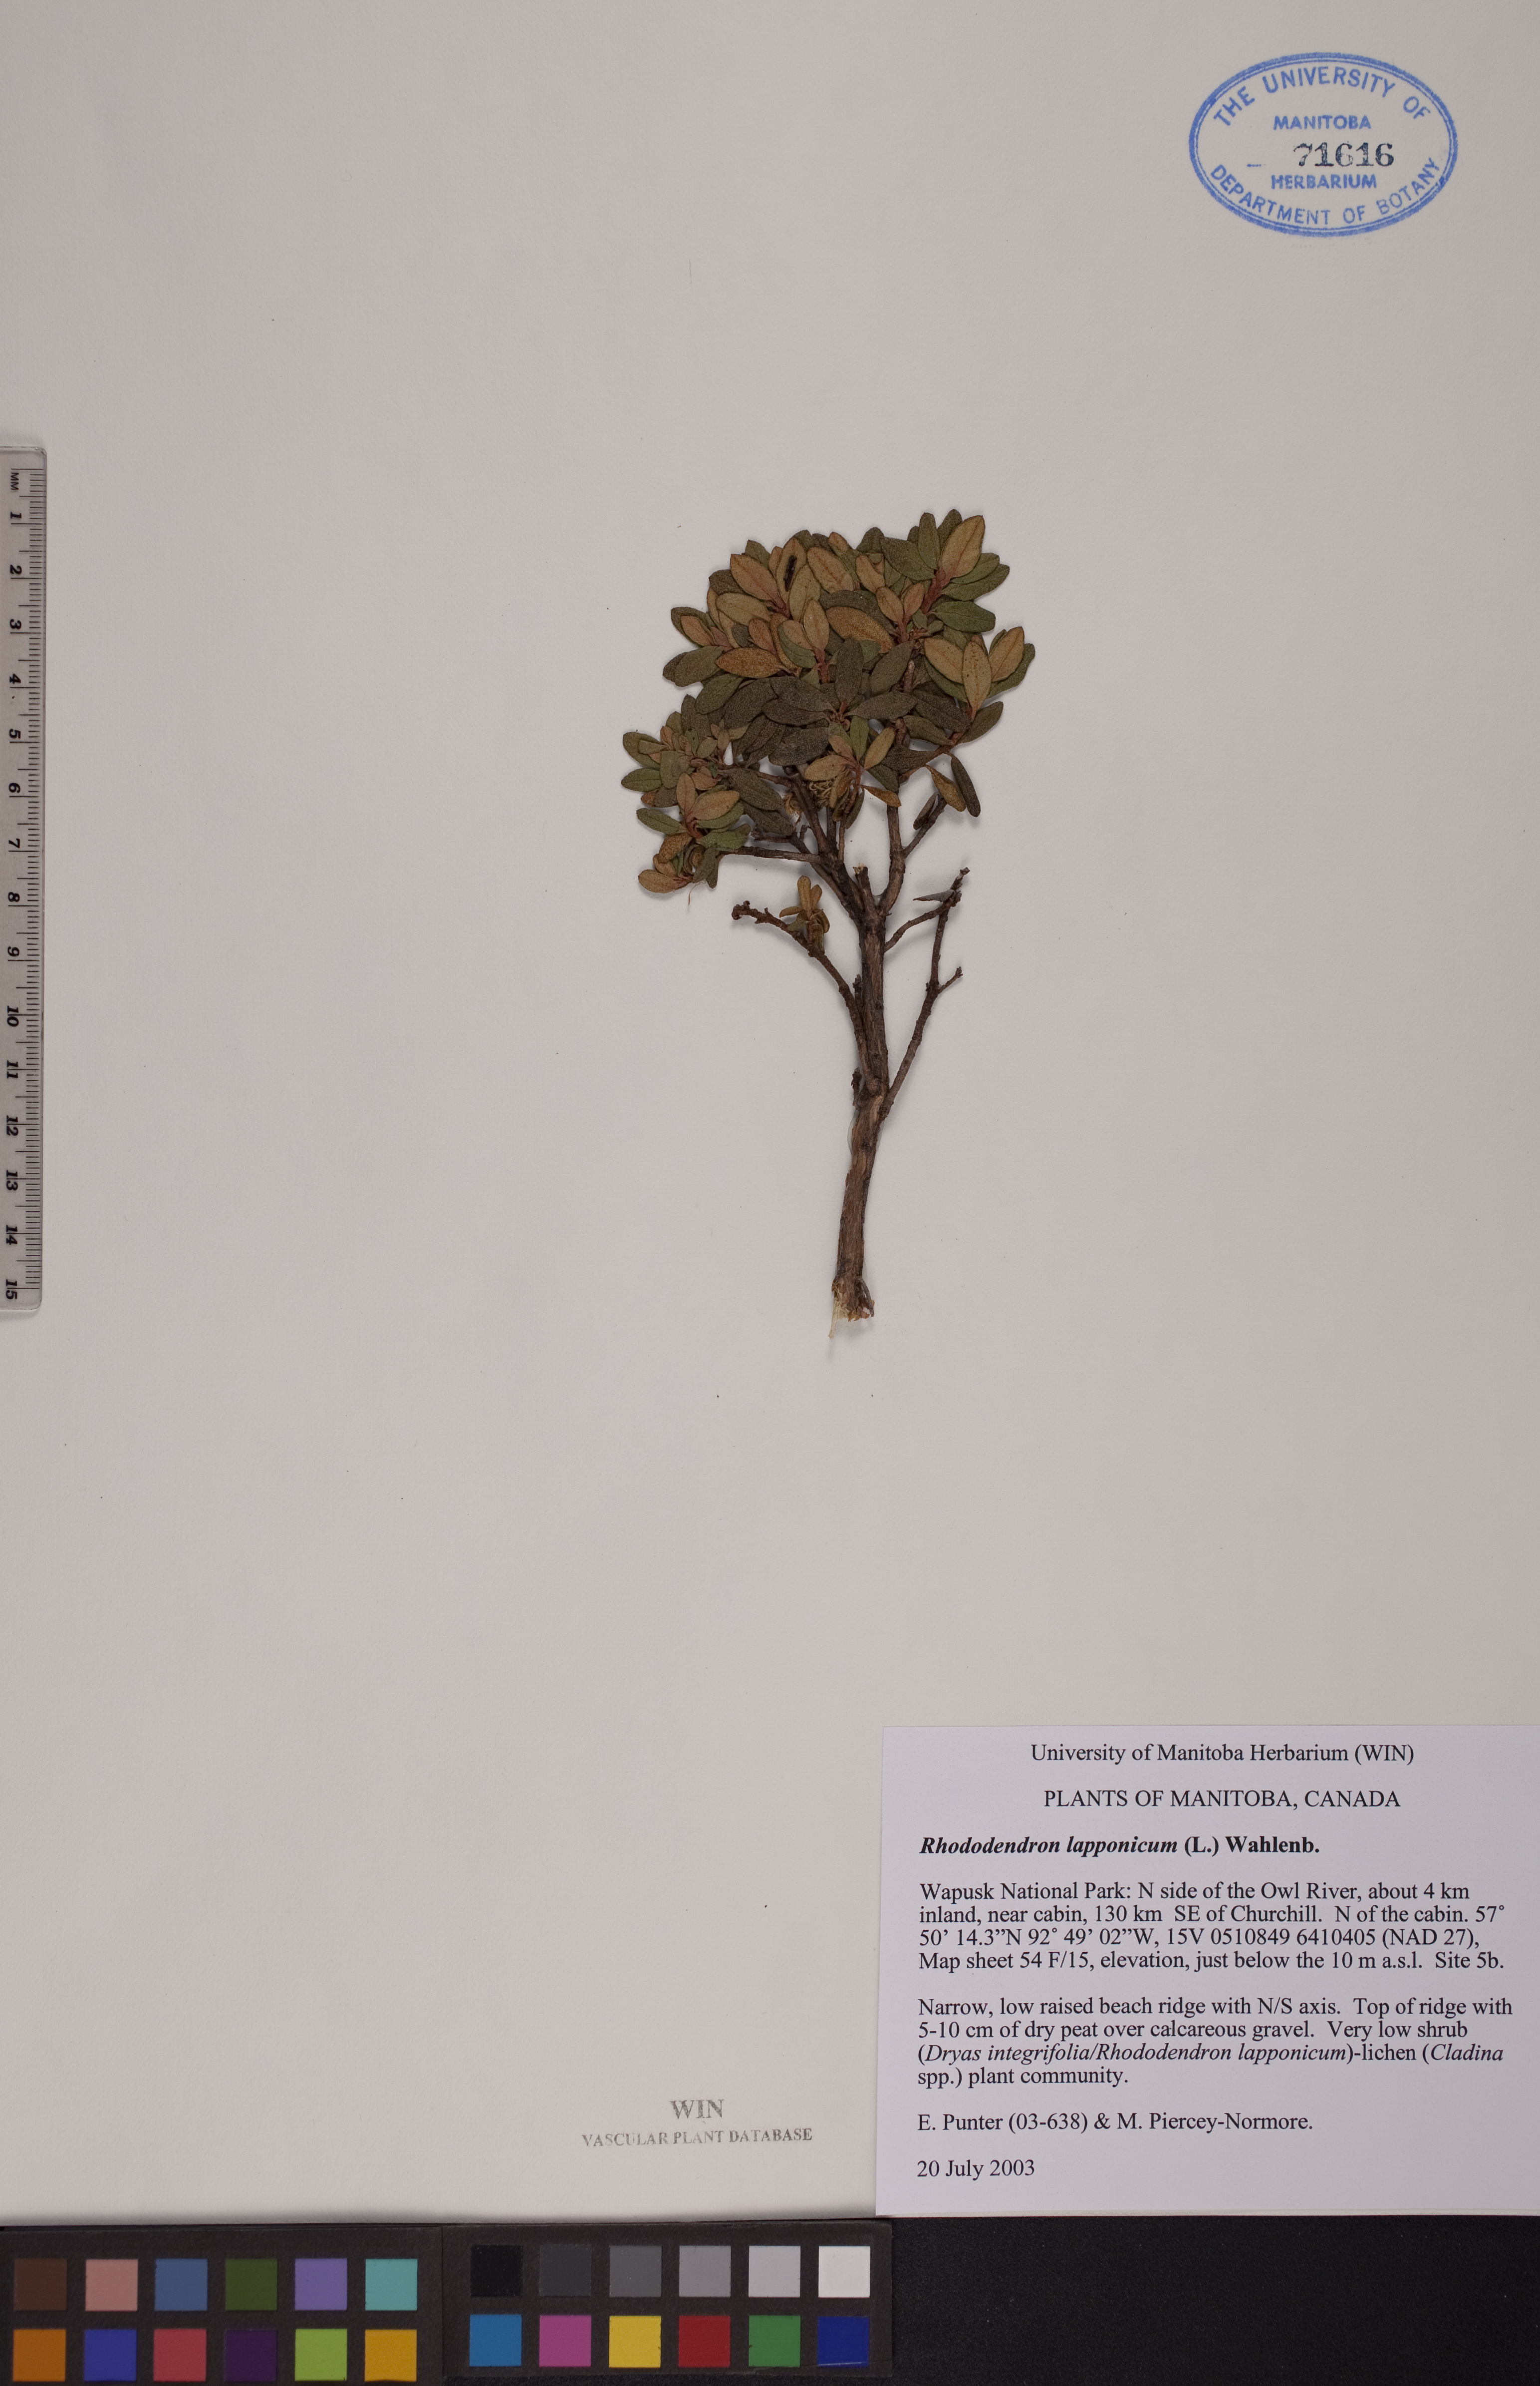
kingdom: Plantae
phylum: Tracheophyta
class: Magnoliopsida
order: Ericales
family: Ericaceae
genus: Rhododendron
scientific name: Rhododendron lapponicum
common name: Lapland rhododendron
